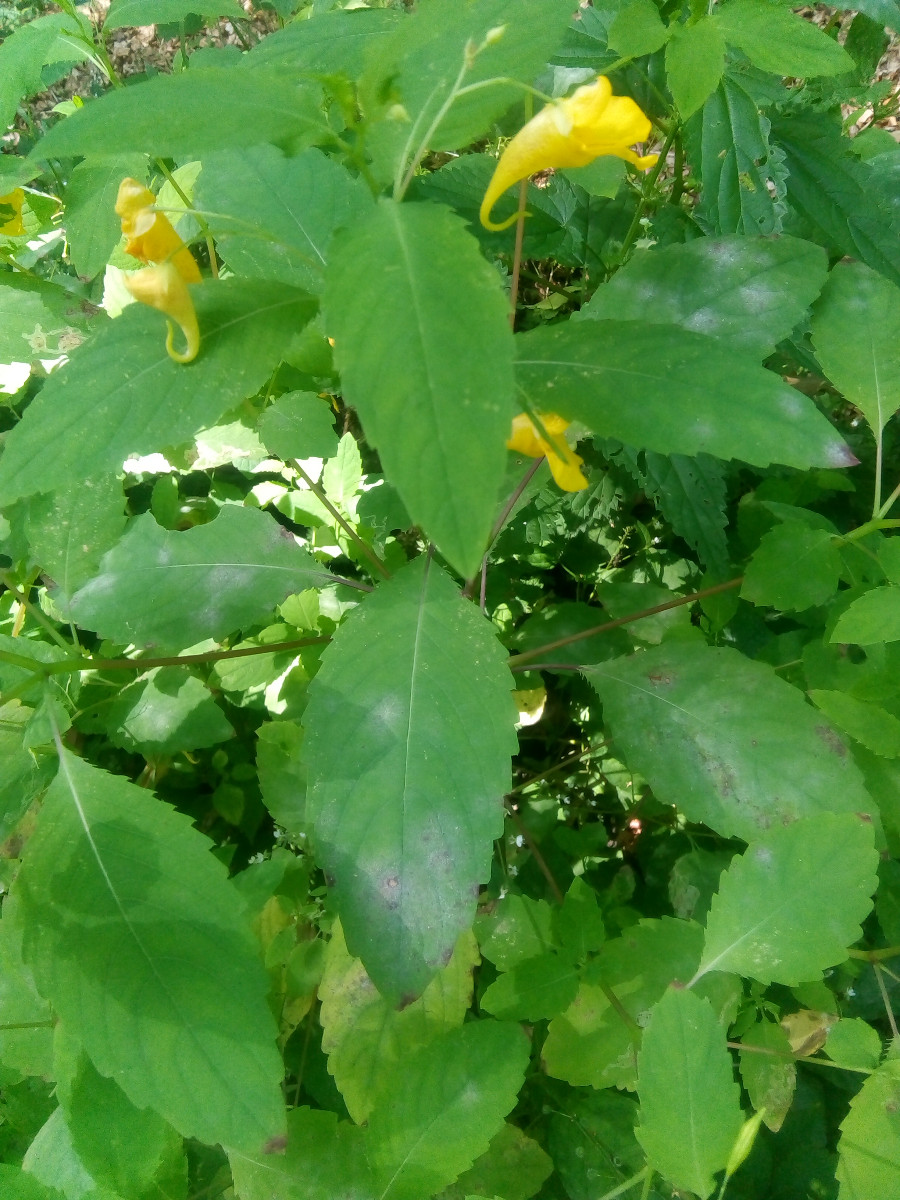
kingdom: Fungi
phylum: Ascomycota
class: Leotiomycetes
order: Helotiales
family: Erysiphaceae
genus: Podosphaera
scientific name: Podosphaera balsaminae
